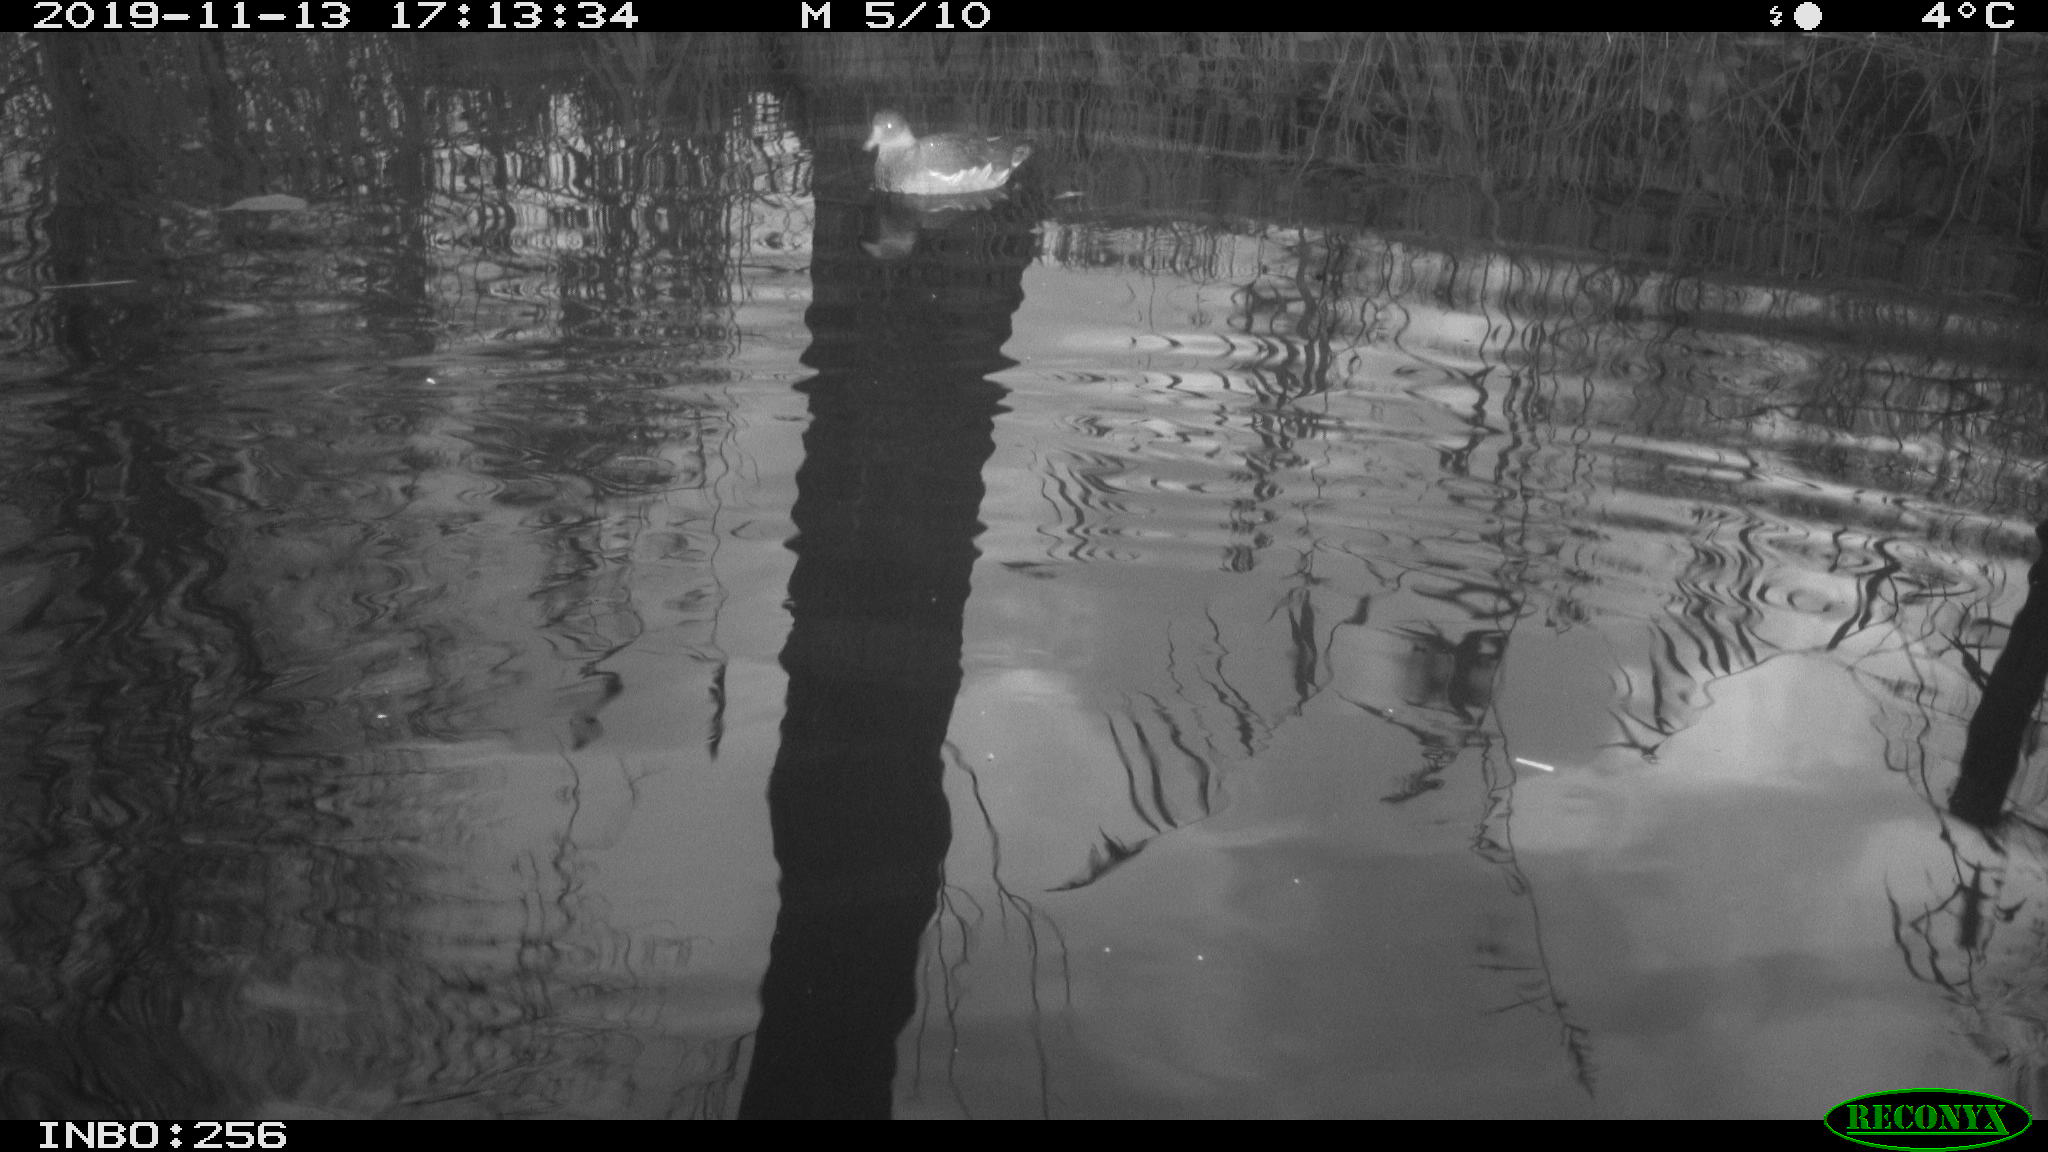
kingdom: Animalia
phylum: Chordata
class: Aves
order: Gruiformes
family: Rallidae
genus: Gallinula
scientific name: Gallinula chloropus
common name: Common moorhen
